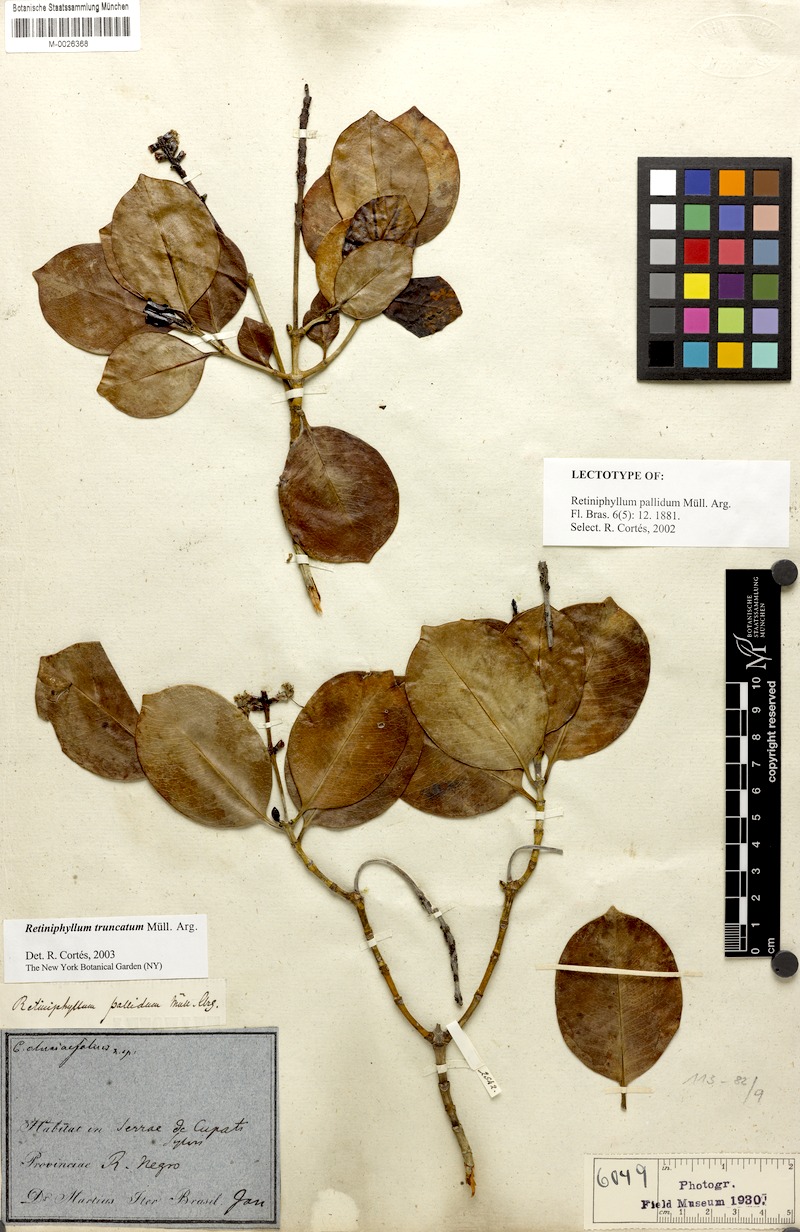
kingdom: Plantae
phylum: Tracheophyta
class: Magnoliopsida
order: Gentianales
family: Rubiaceae
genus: Retiniphyllum
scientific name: Retiniphyllum truncatum
